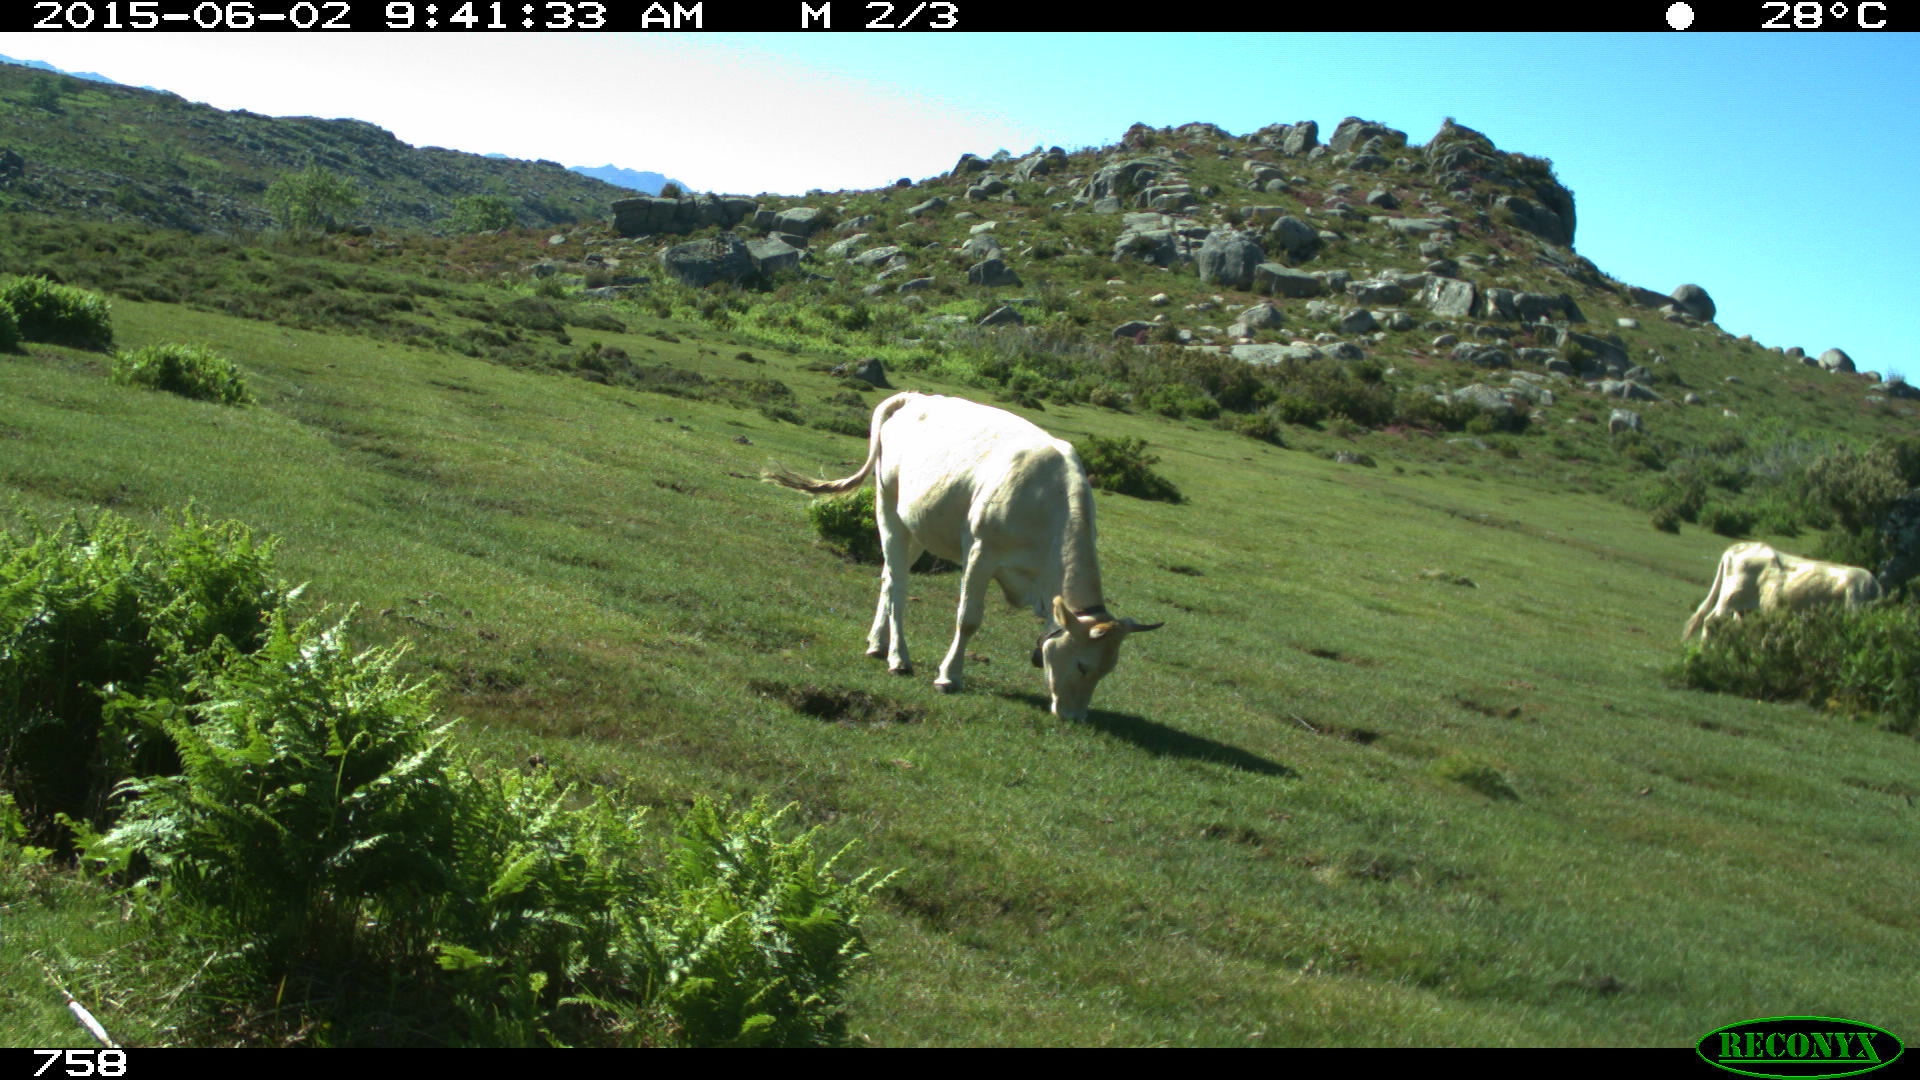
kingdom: Animalia
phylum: Chordata
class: Mammalia
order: Artiodactyla
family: Bovidae
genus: Bos
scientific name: Bos taurus
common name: Domesticated cattle
